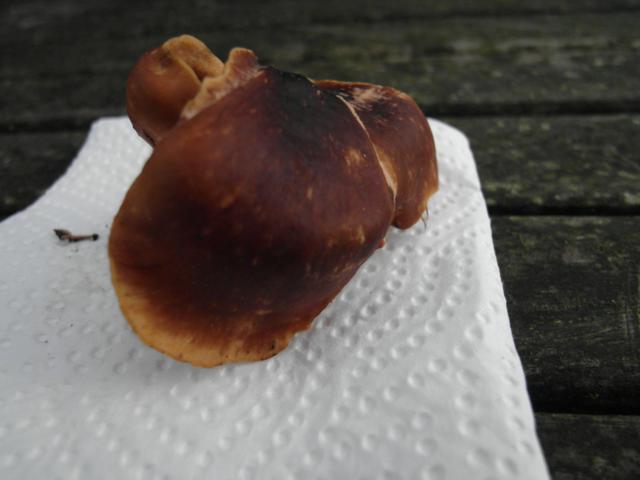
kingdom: Fungi
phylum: Basidiomycota
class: Agaricomycetes
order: Polyporales
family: Polyporaceae
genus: Picipes
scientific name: Picipes badius
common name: kastaniebrun stilkporesvamp
